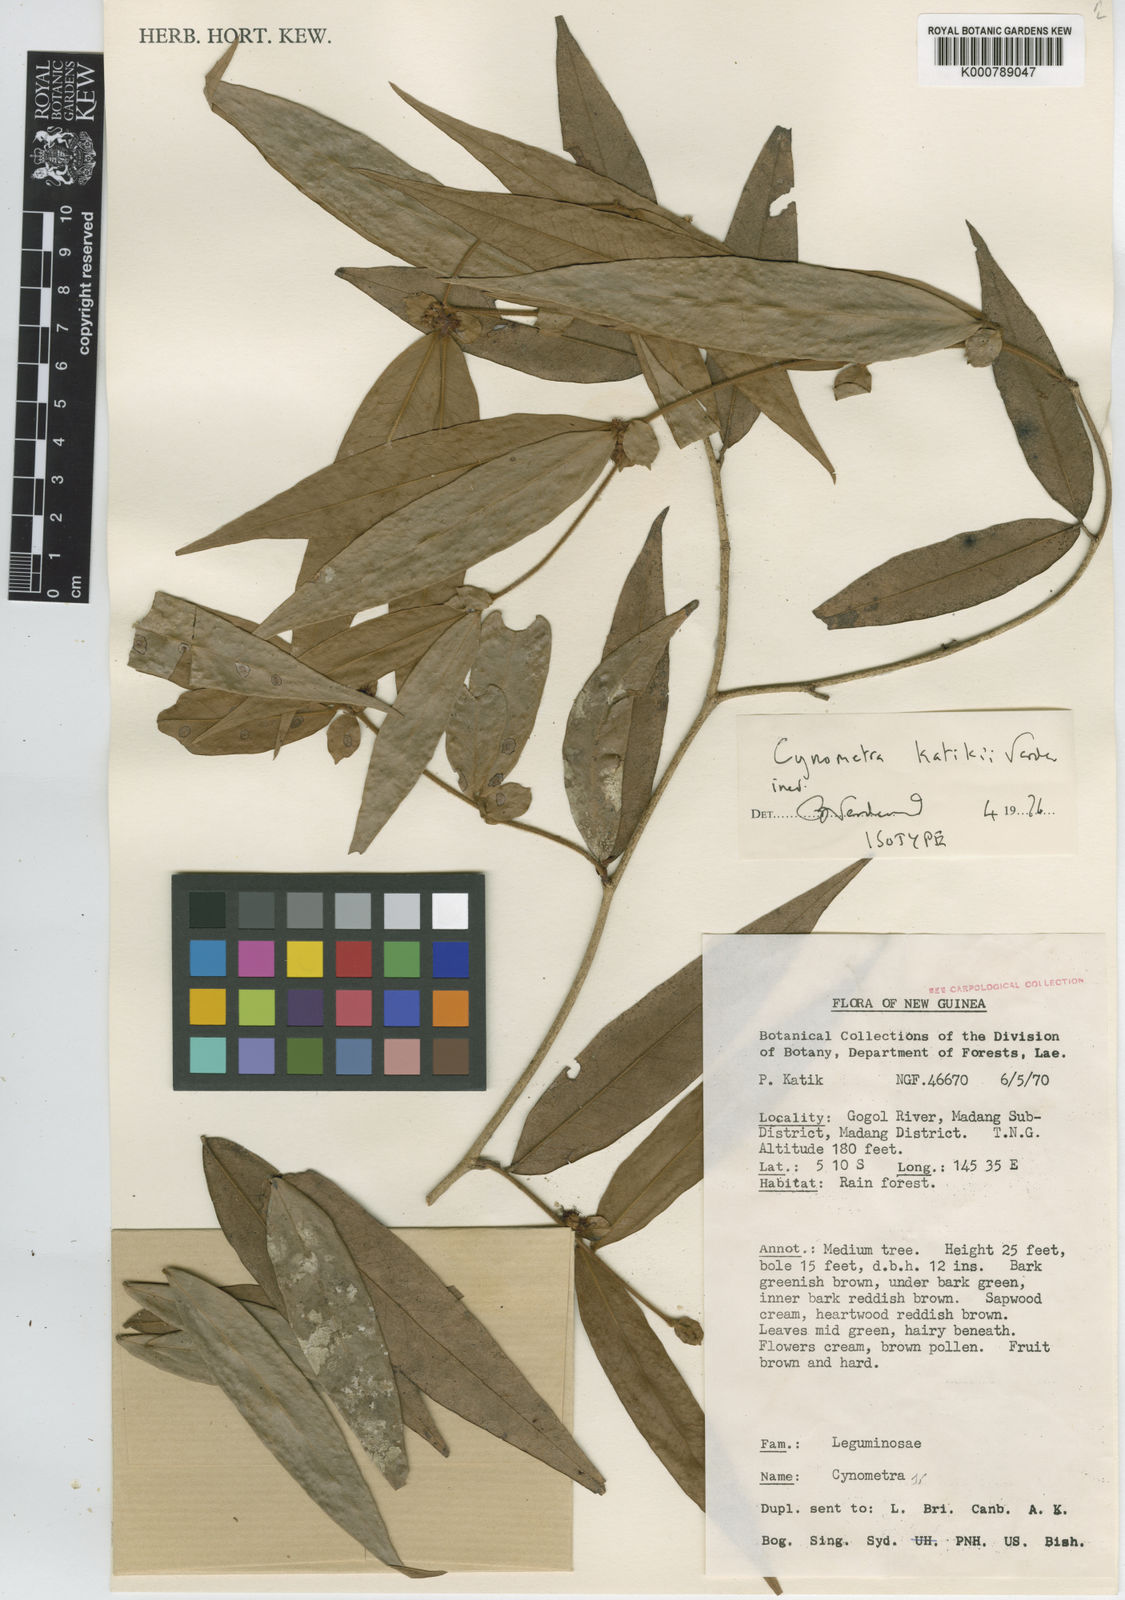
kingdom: Plantae
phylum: Tracheophyta
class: Magnoliopsida
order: Fabales
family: Fabaceae
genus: Cynometra
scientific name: Cynometra katikii
